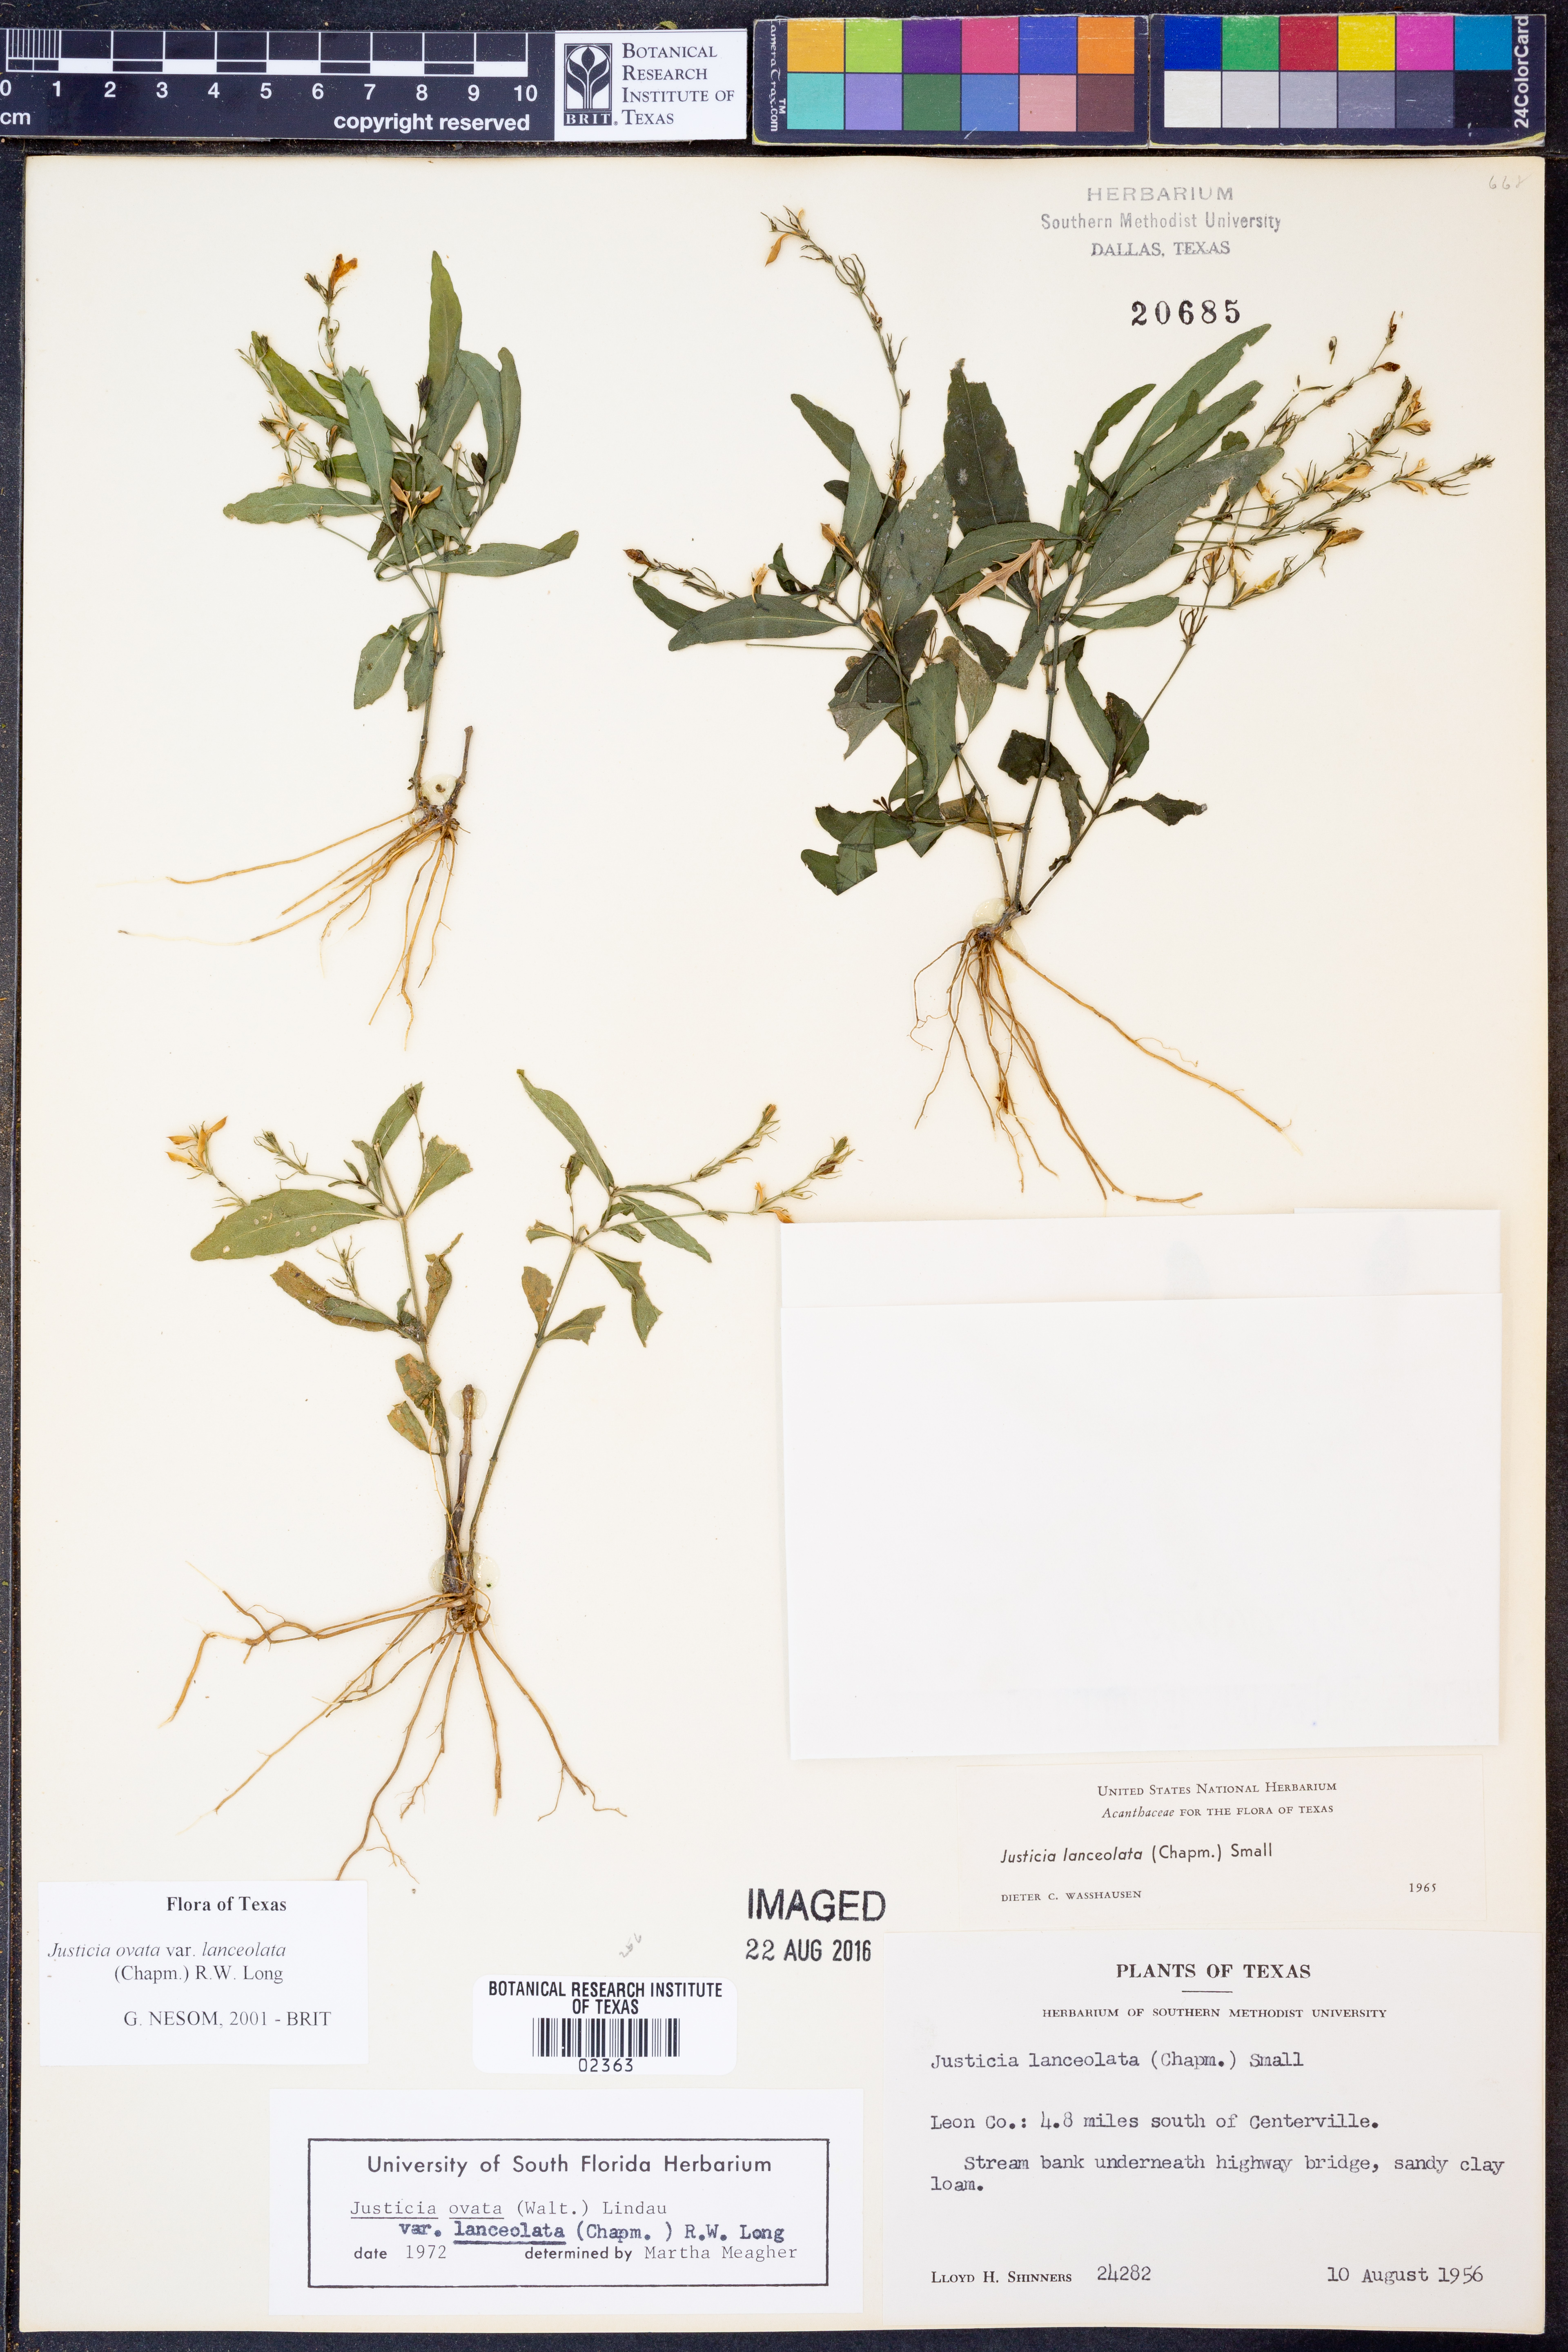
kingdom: Plantae
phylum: Tracheophyta
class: Magnoliopsida
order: Lamiales
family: Acanthaceae
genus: Justicia
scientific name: Justicia lanceolata
